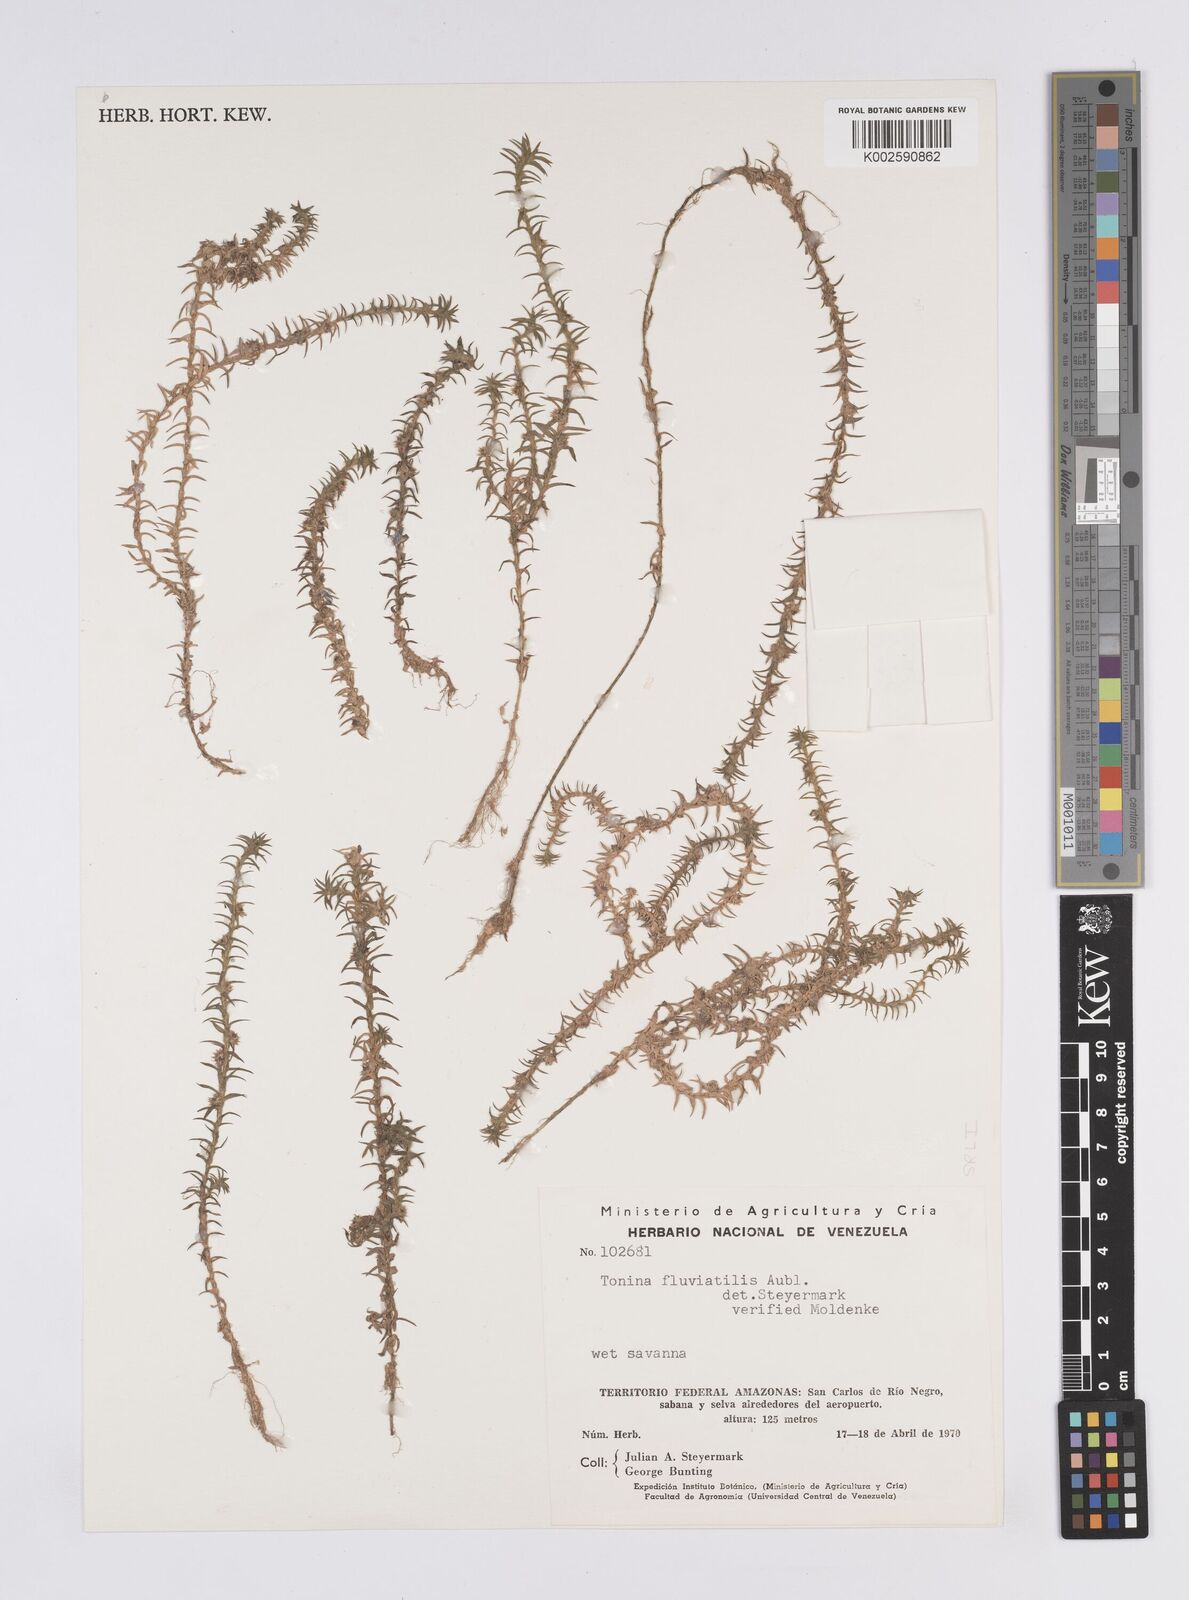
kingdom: Plantae
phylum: Tracheophyta
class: Liliopsida
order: Poales
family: Eriocaulaceae
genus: Paepalanthus
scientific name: Paepalanthus fluviatilis
